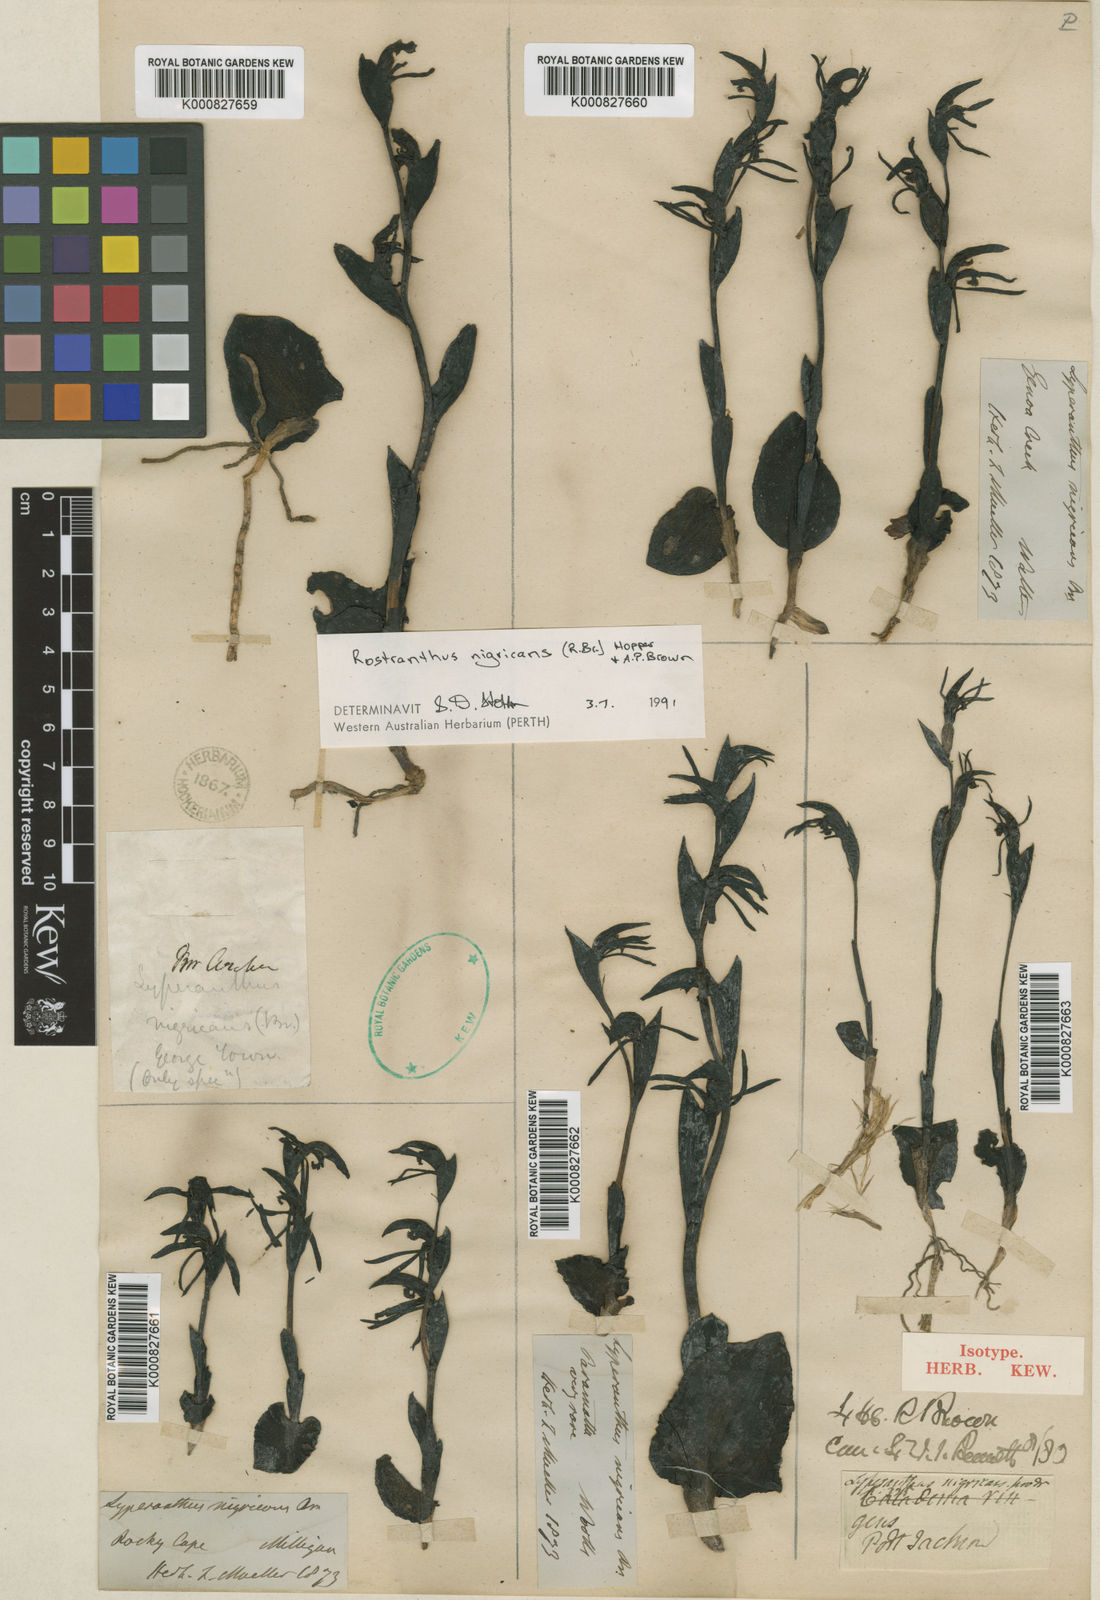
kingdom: Plantae
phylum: Tracheophyta
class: Liliopsida
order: Asparagales
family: Orchidaceae
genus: Pyrorchis
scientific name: Pyrorchis nigricans
